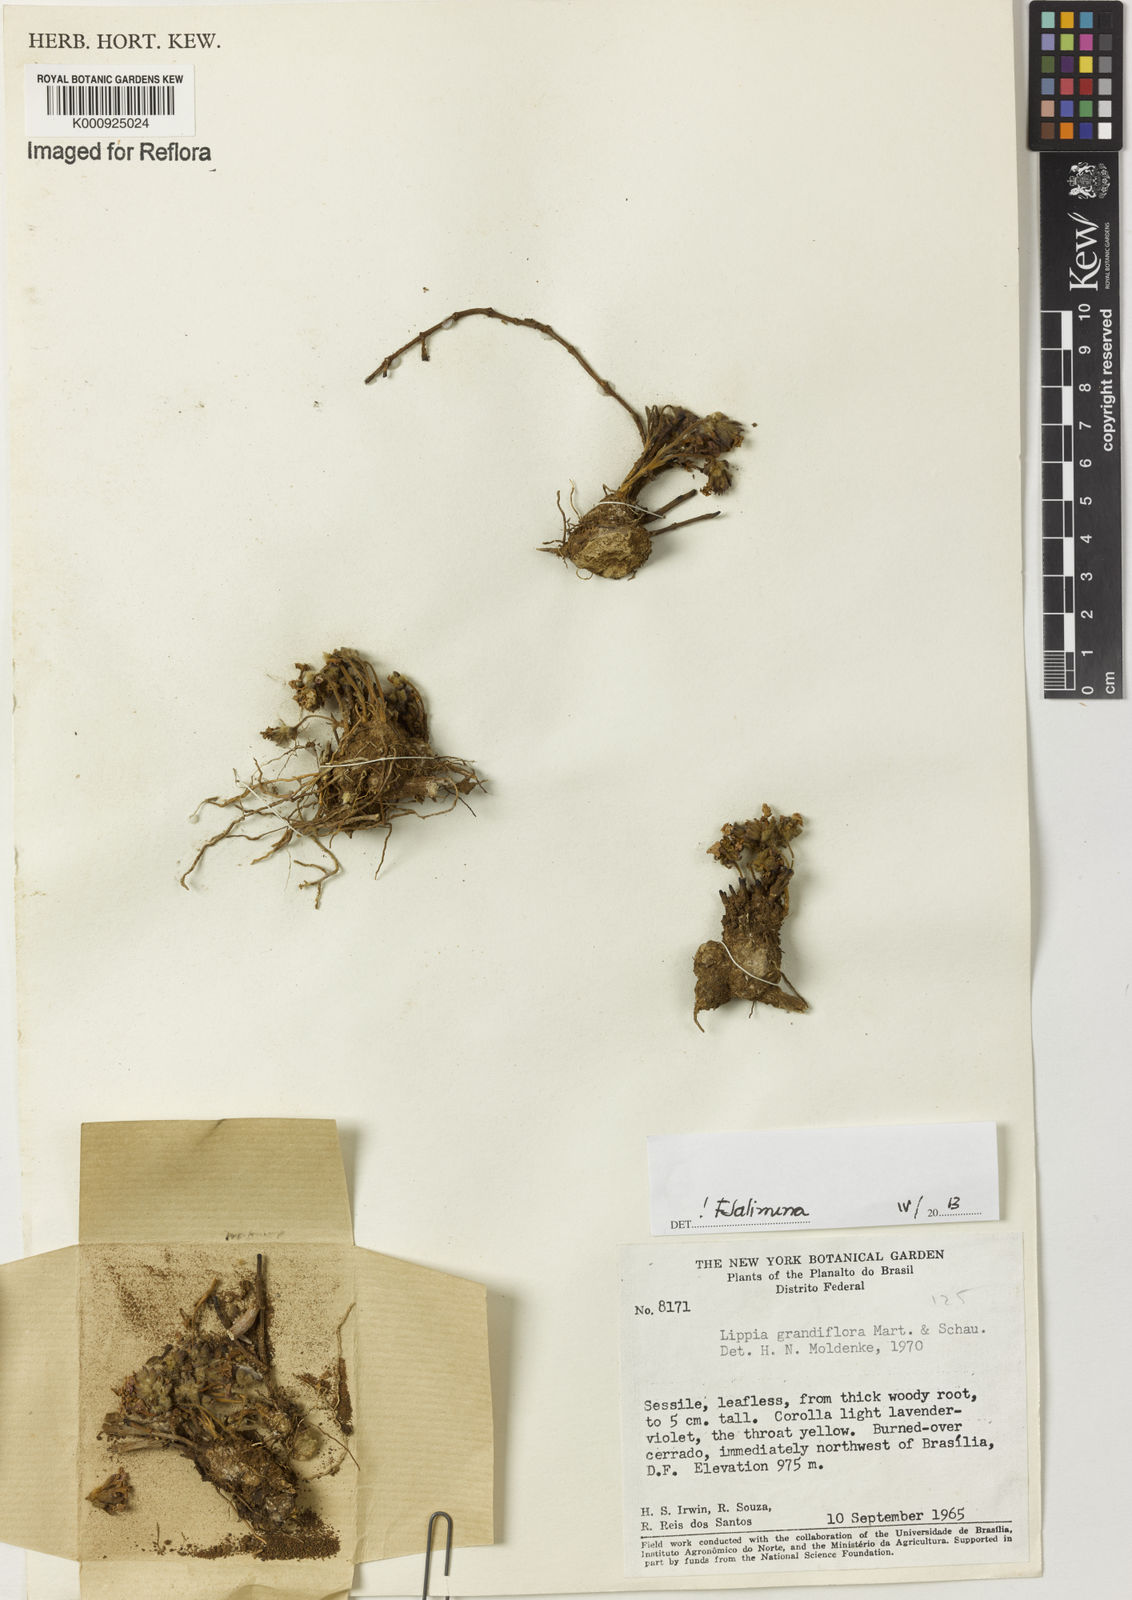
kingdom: Plantae
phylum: Tracheophyta
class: Magnoliopsida
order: Lamiales
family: Verbenaceae
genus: Lippia
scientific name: Lippia grandiflora
